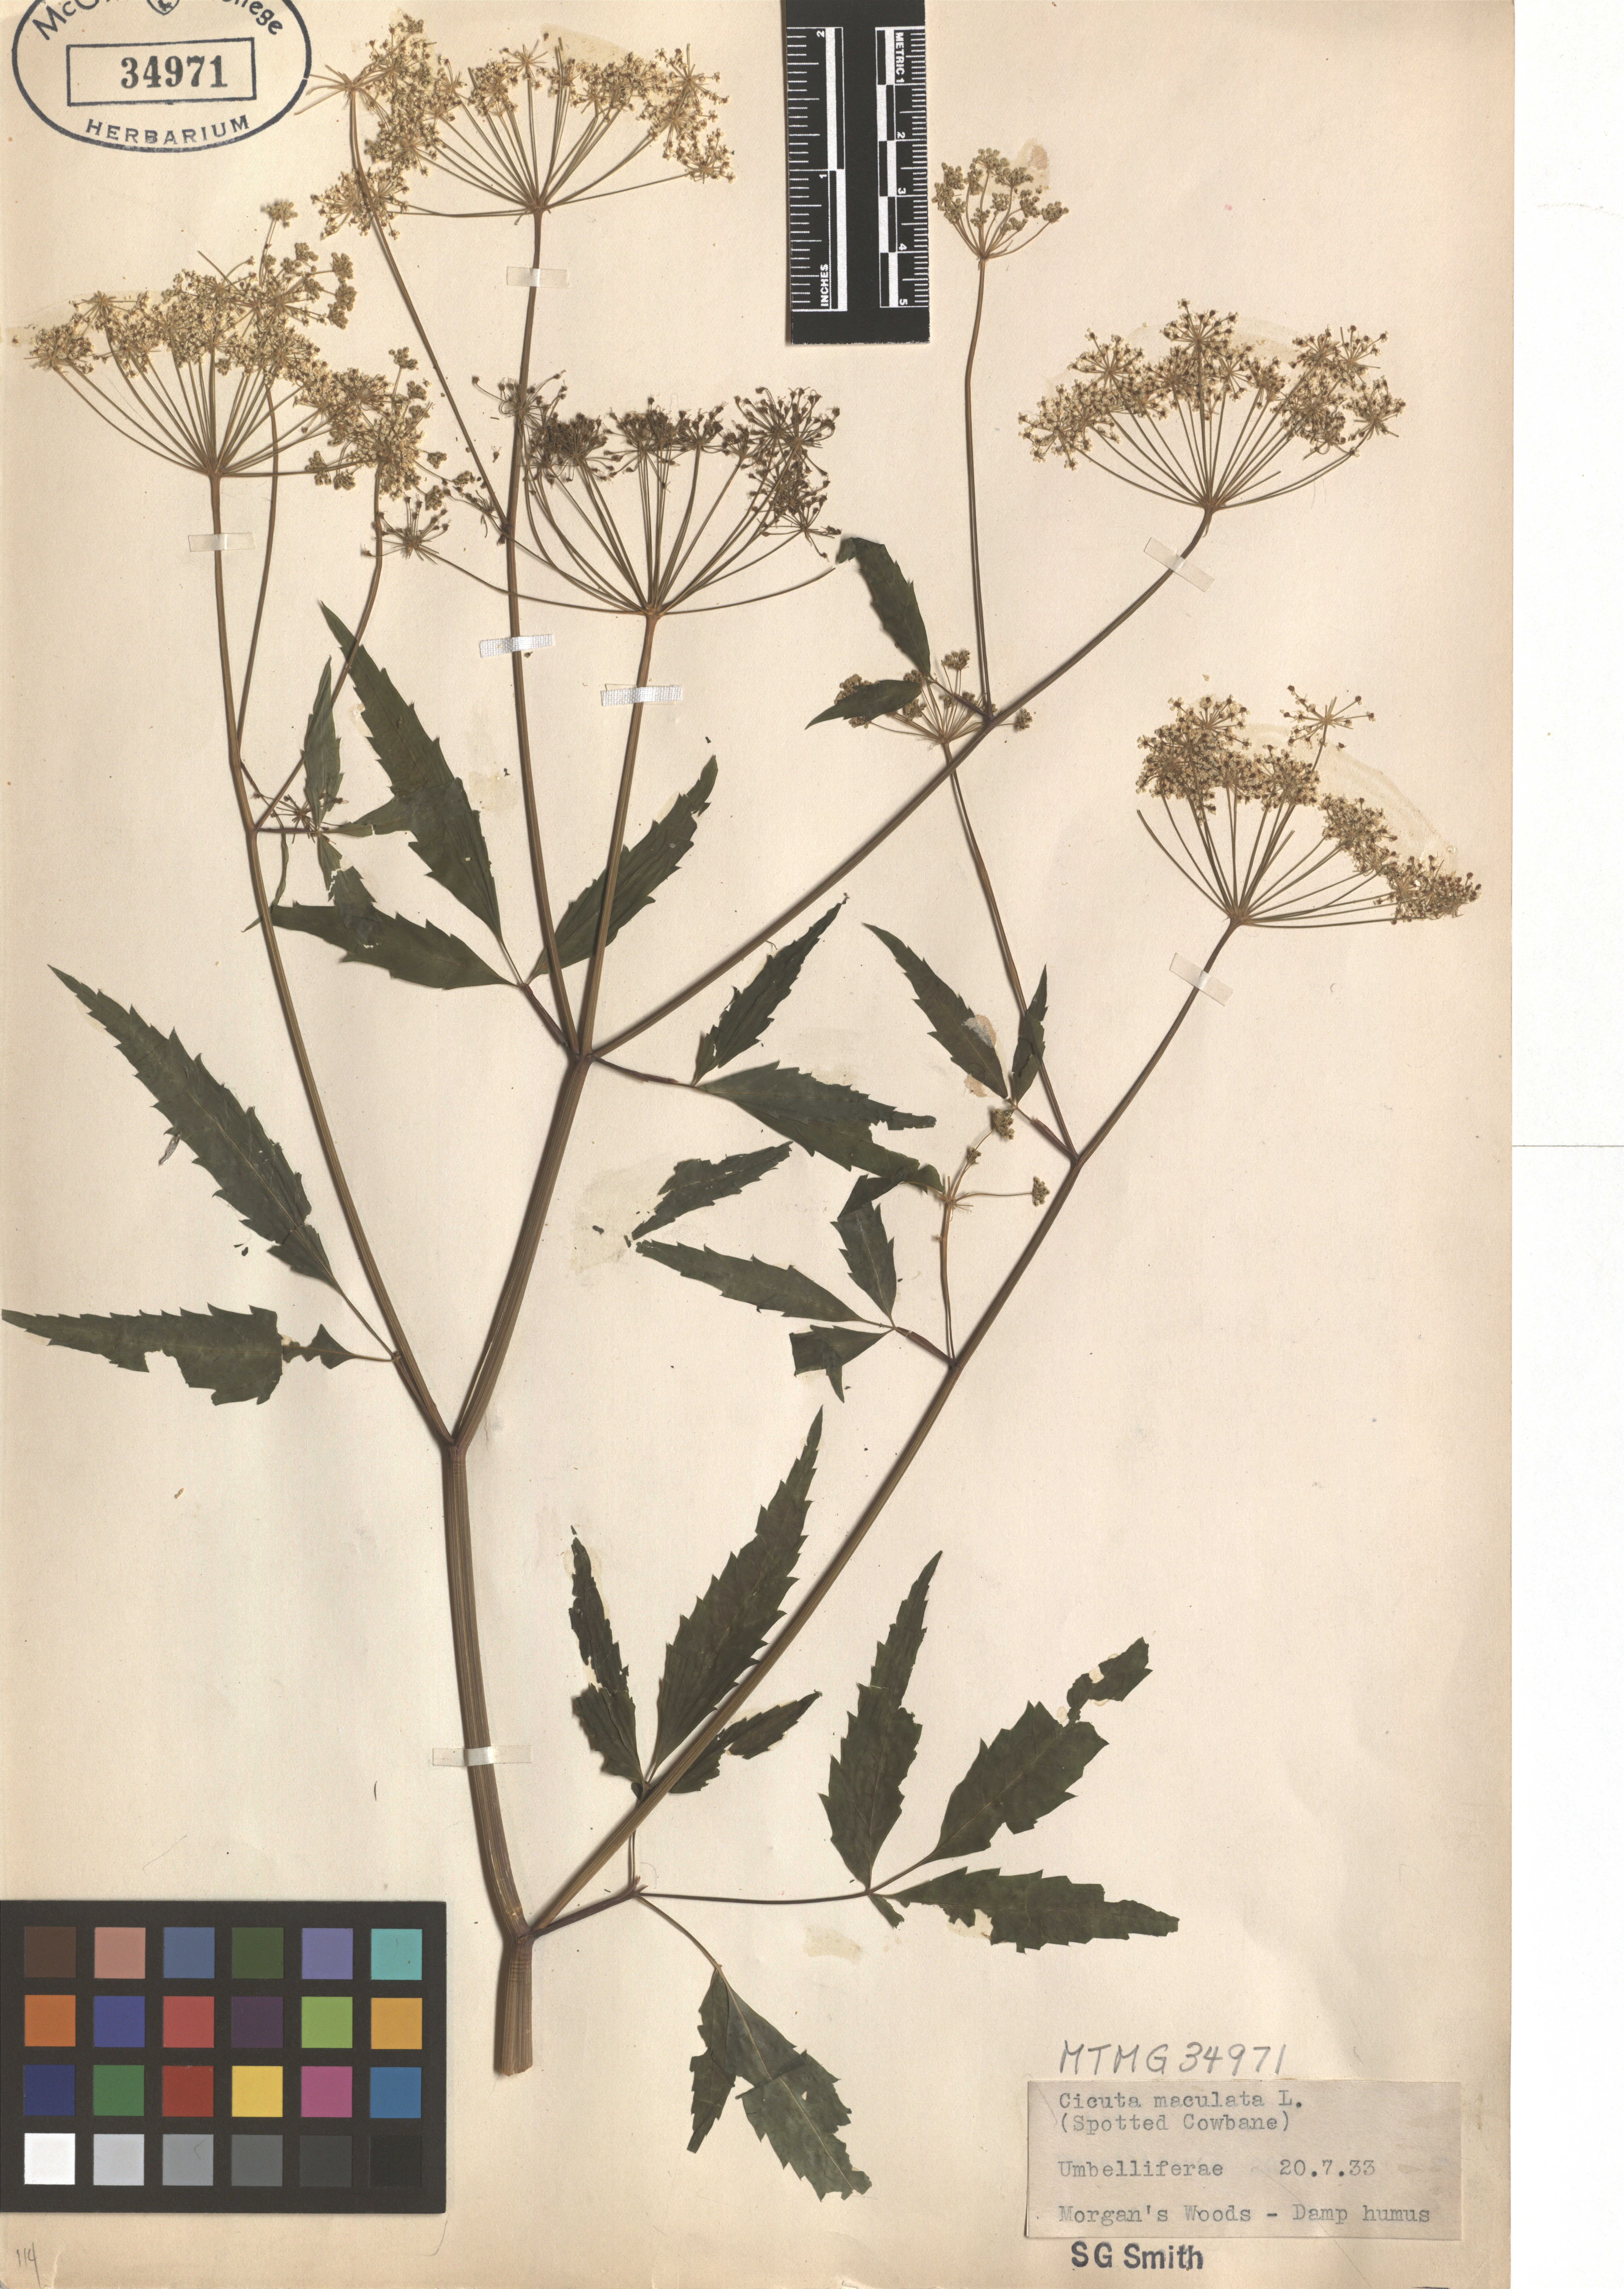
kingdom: Plantae
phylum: Tracheophyta
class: Magnoliopsida
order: Apiales
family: Apiaceae
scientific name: Apiaceae
